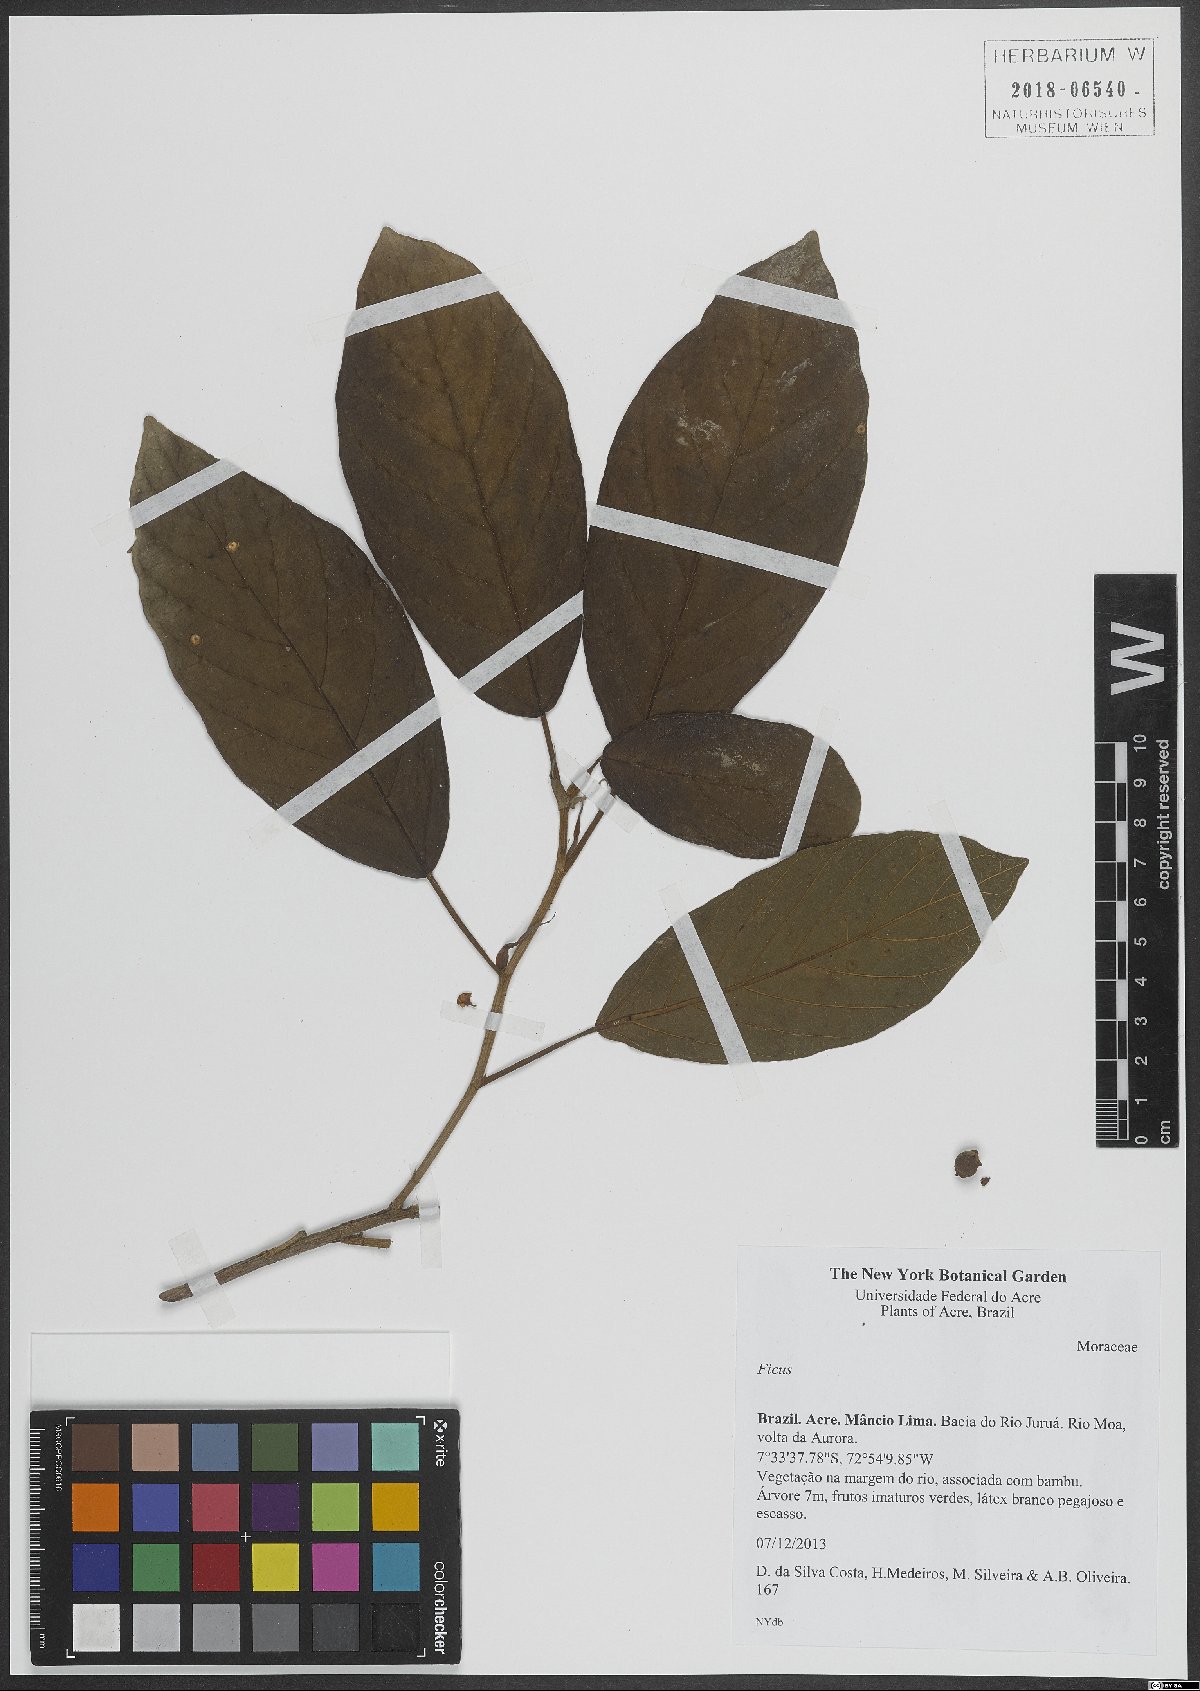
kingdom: Plantae
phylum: Tracheophyta
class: Magnoliopsida
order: Rosales
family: Moraceae
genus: Ficus
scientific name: Ficus
